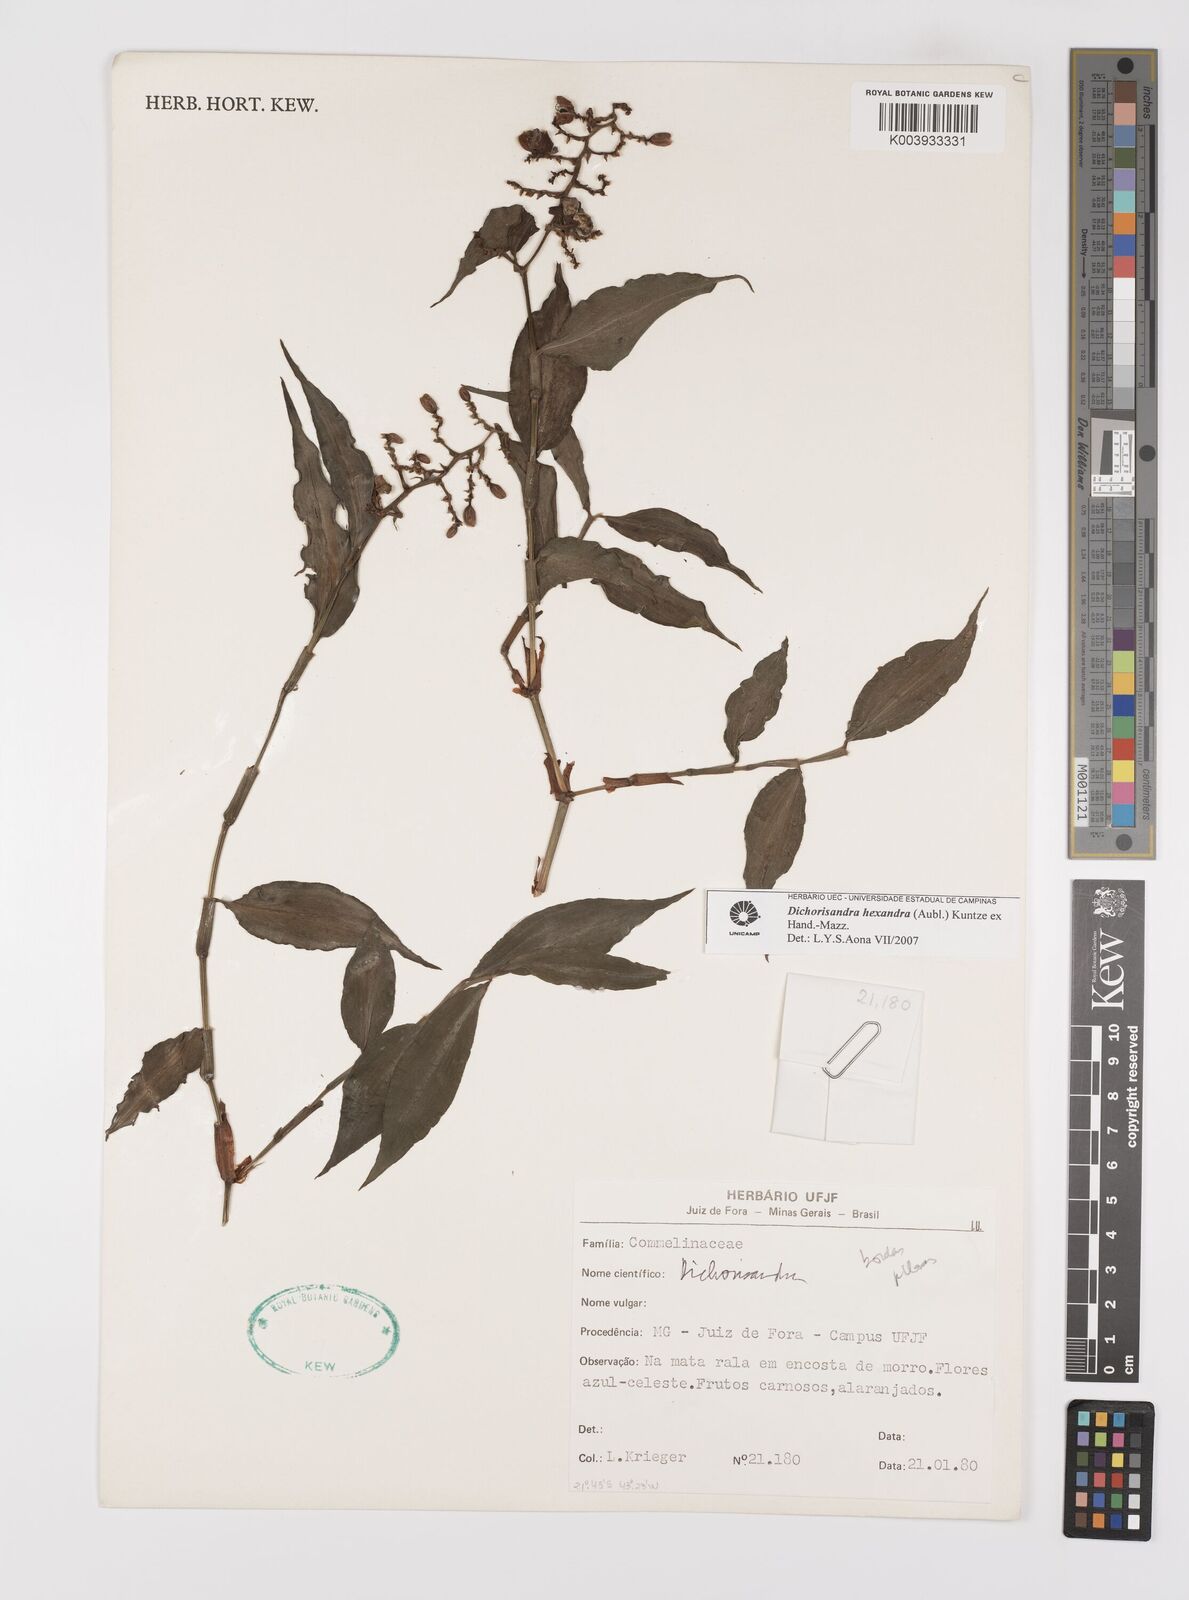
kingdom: Plantae
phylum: Tracheophyta
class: Liliopsida
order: Commelinales
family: Commelinaceae
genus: Dichorisandra
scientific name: Dichorisandra
